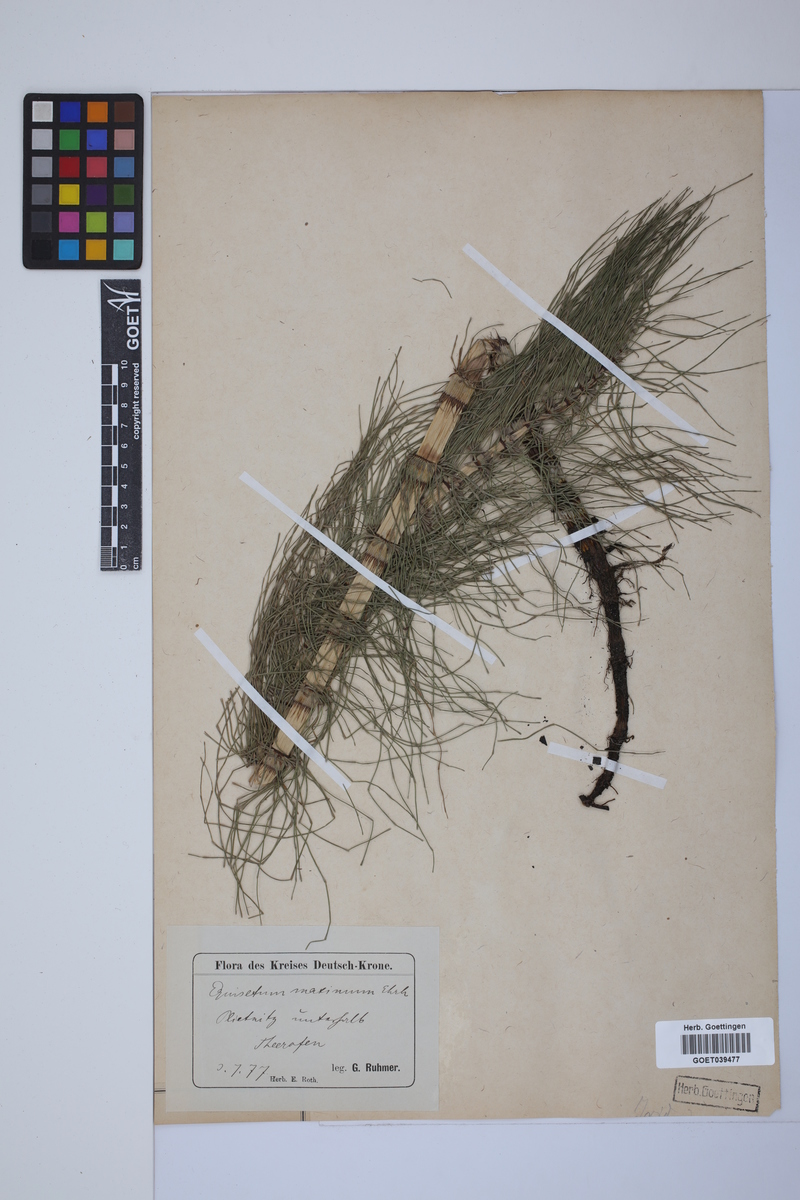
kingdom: Plantae
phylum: Tracheophyta
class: Polypodiopsida
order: Equisetales
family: Equisetaceae
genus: Equisetum
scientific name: Equisetum telmateia
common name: Great horsetail
